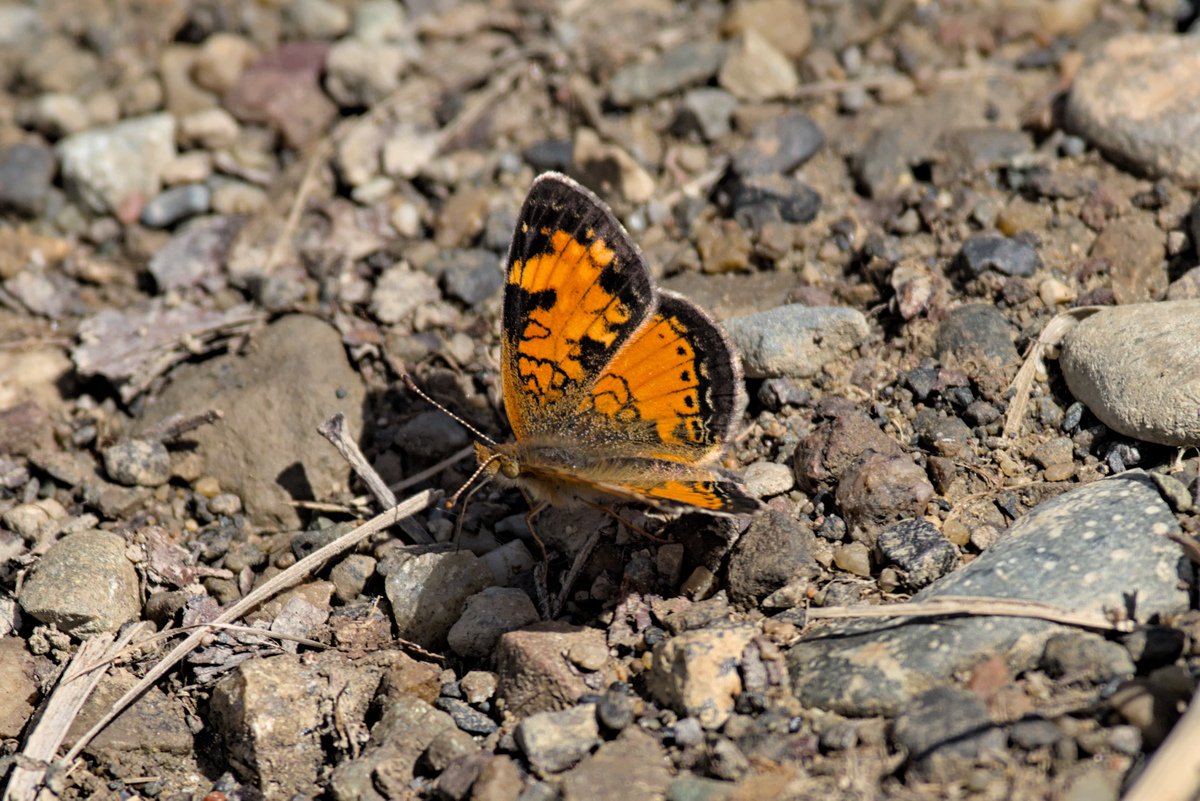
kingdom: Animalia
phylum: Arthropoda
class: Insecta
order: Lepidoptera
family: Nymphalidae
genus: Phyciodes
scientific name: Phyciodes tharos
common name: Northern Crescent
